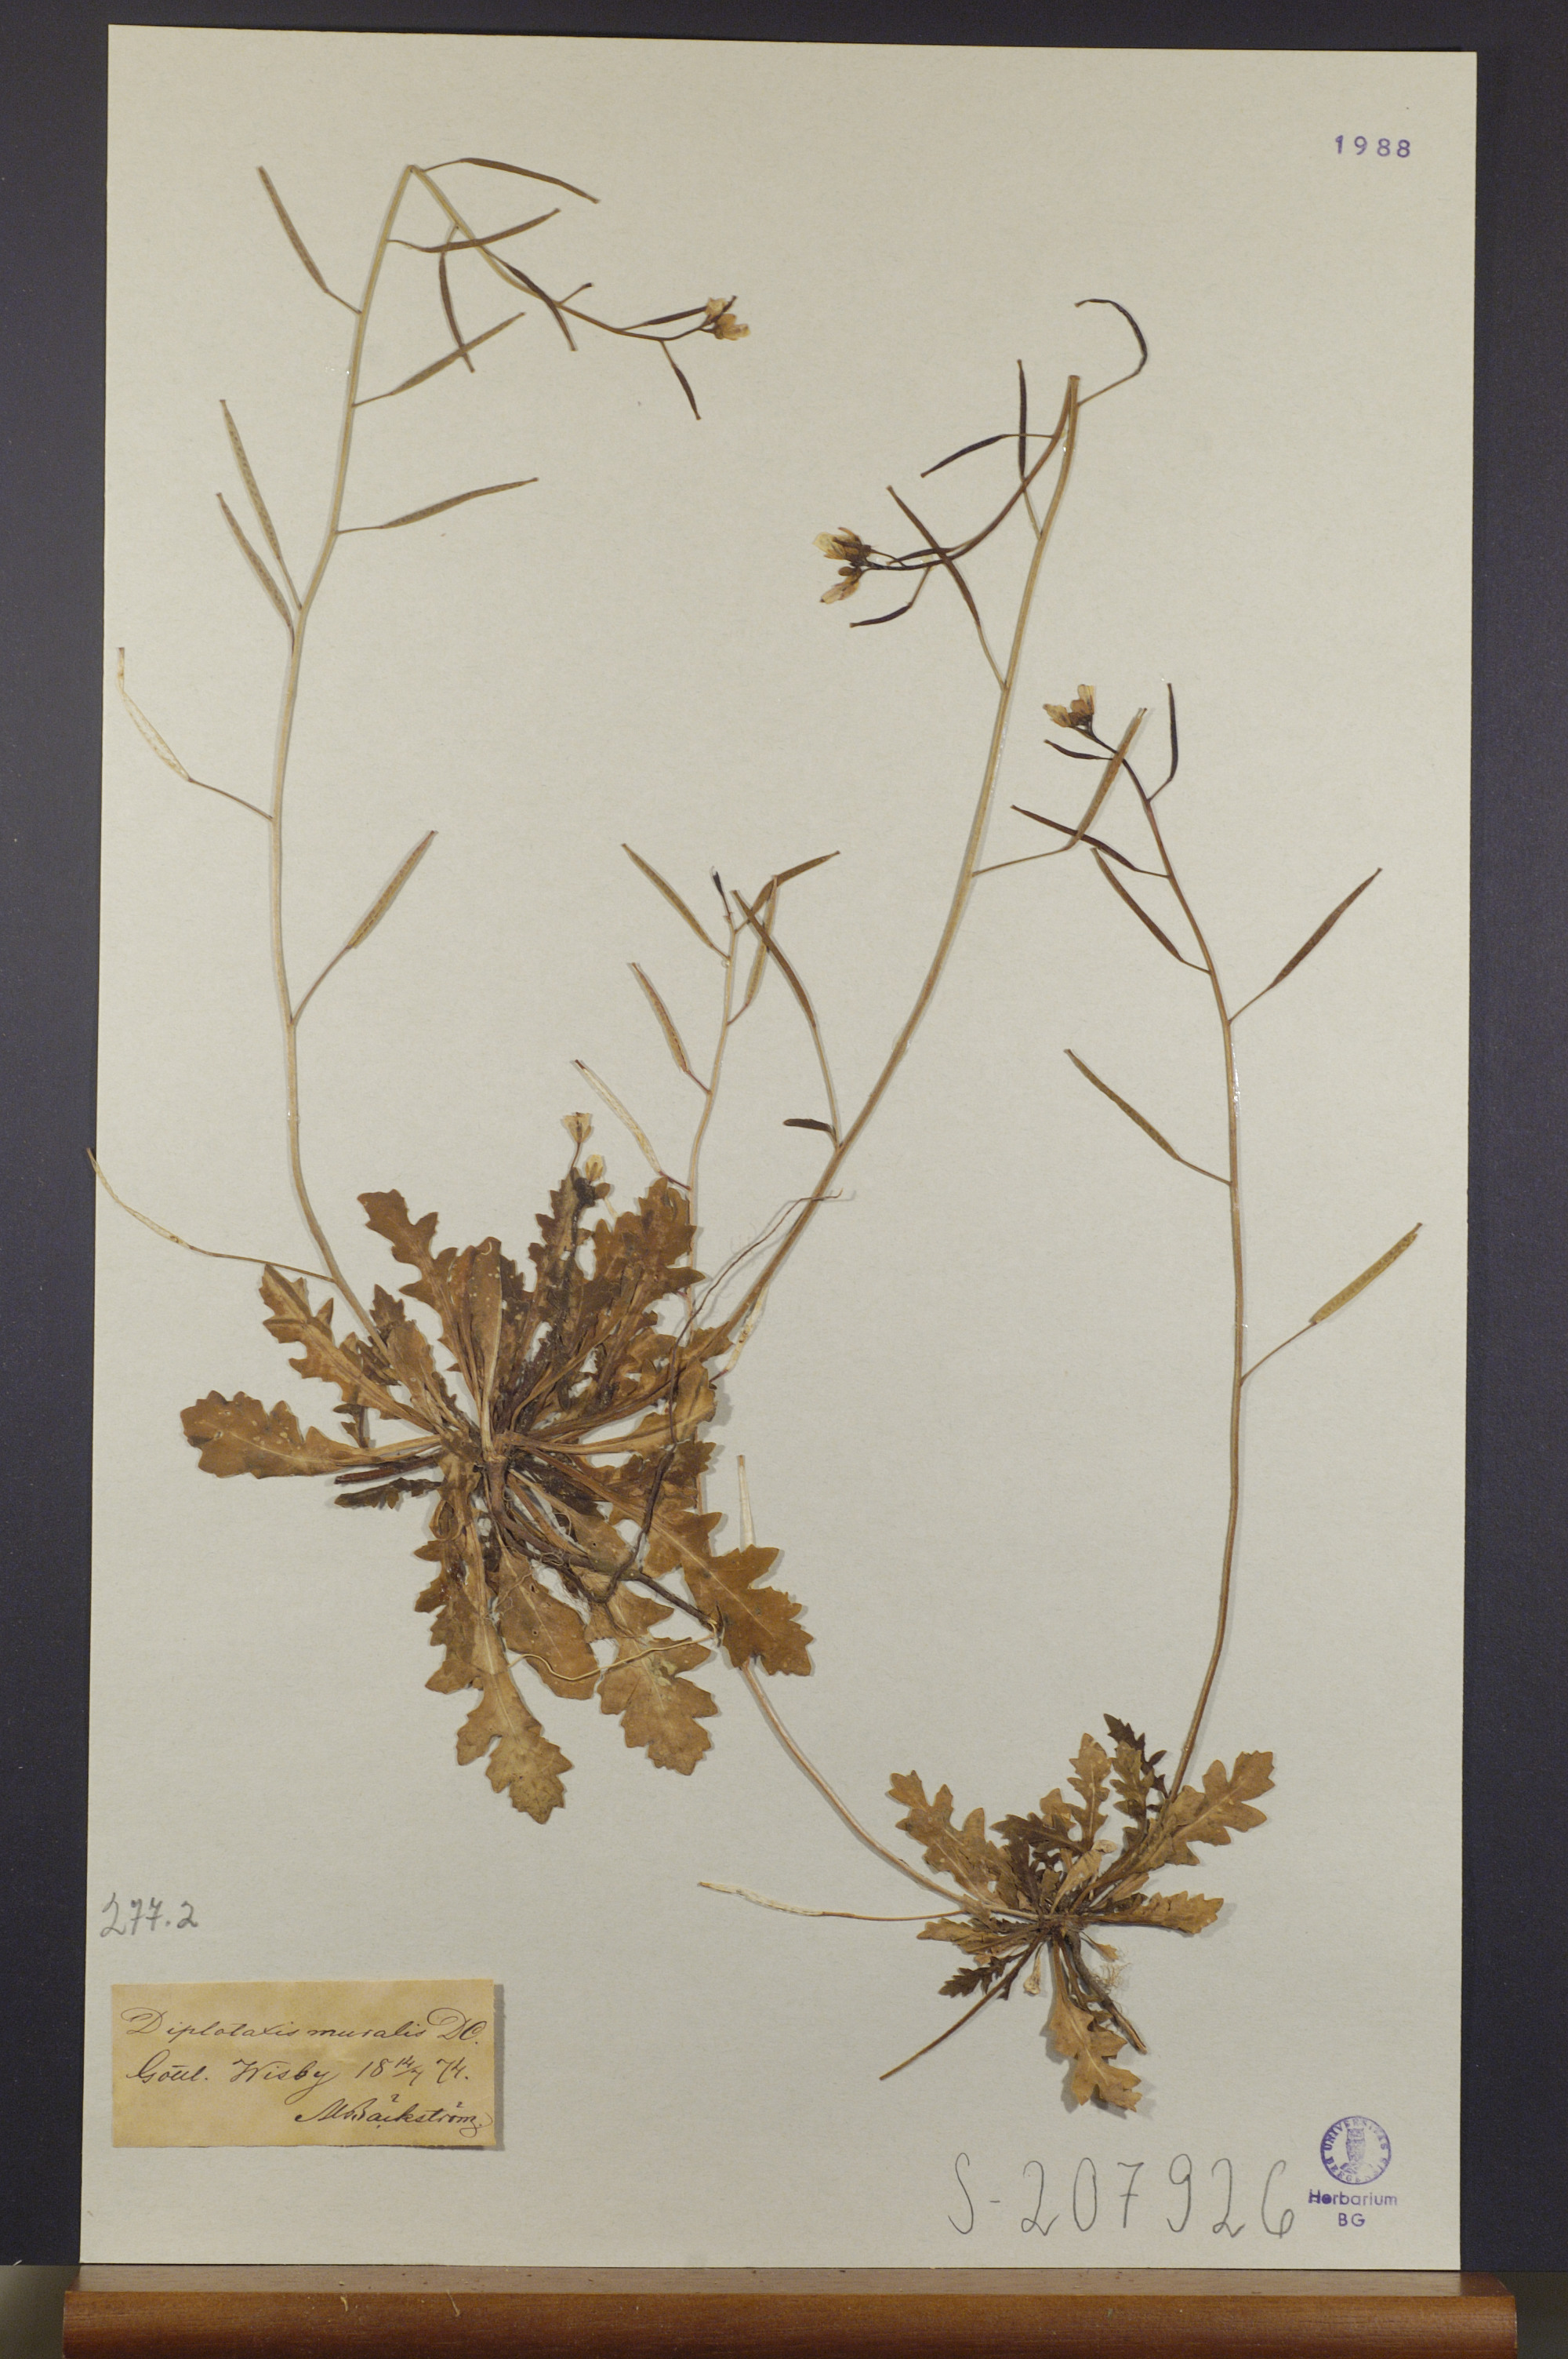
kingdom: Plantae
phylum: Tracheophyta
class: Magnoliopsida
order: Brassicales
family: Brassicaceae
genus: Diplotaxis
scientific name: Diplotaxis muralis
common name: Annual wall-rocket
